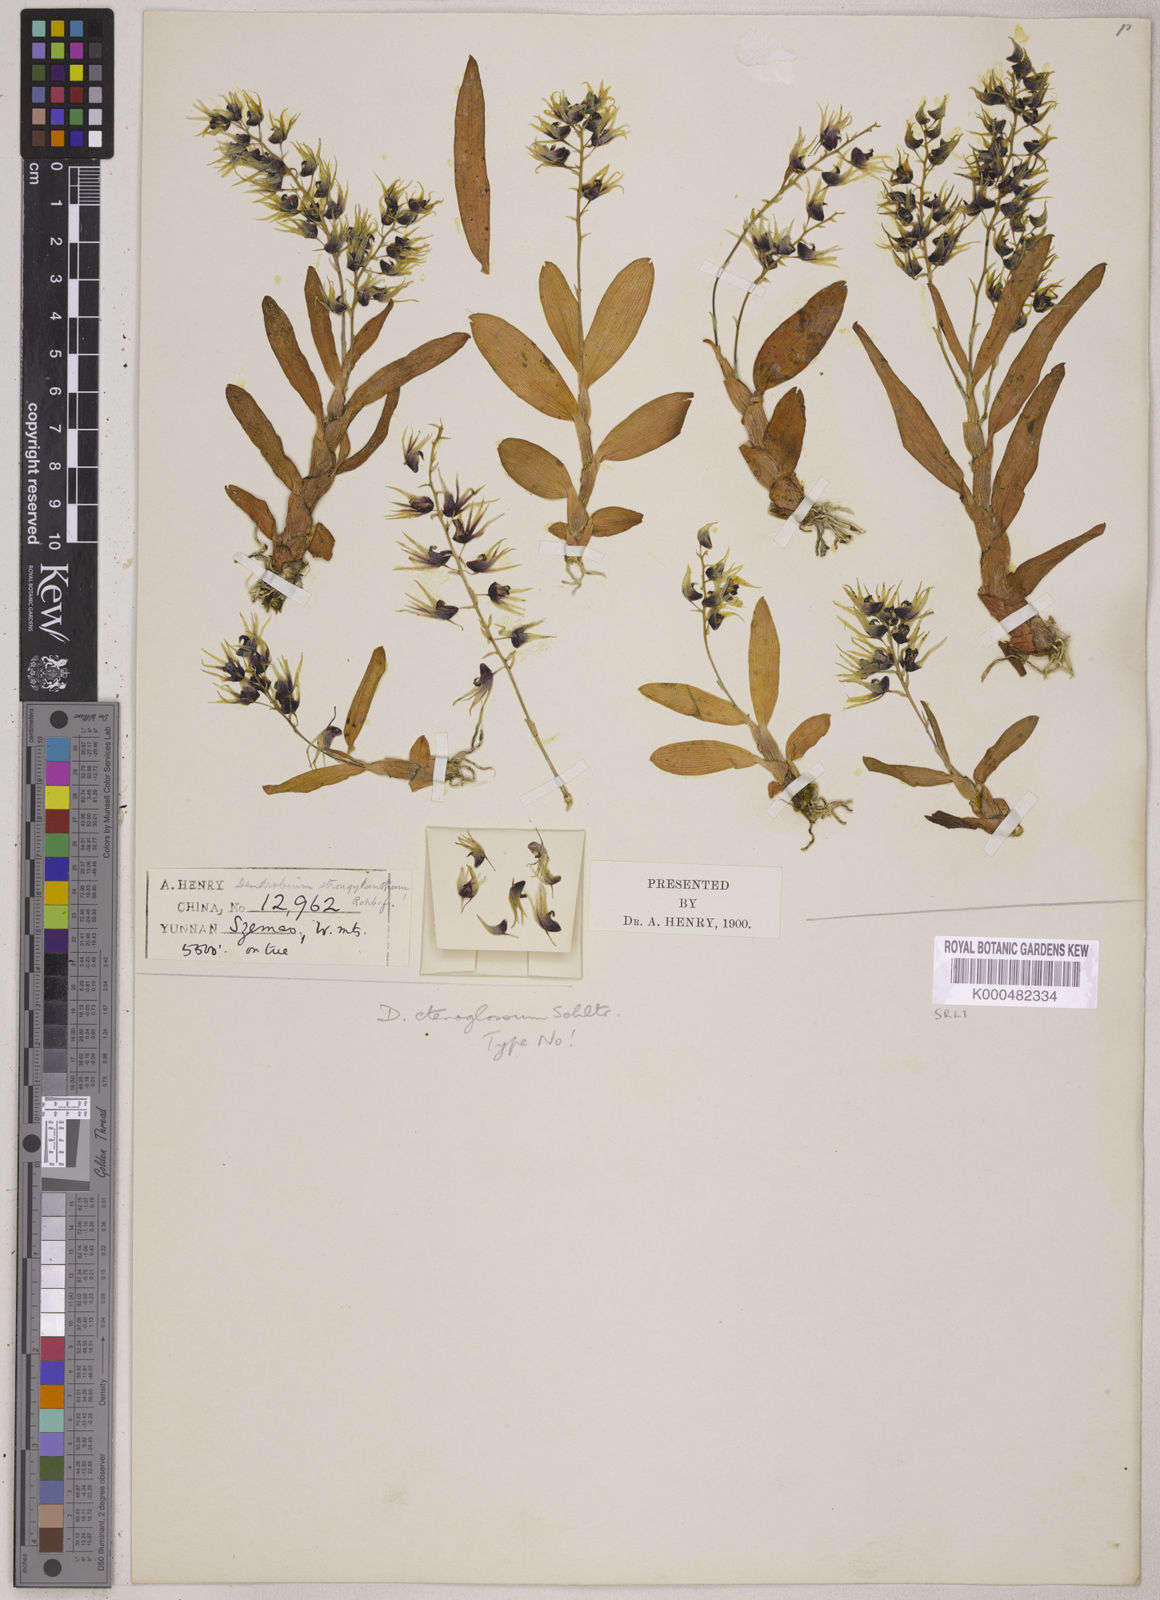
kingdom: Plantae
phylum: Tracheophyta
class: Liliopsida
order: Asparagales
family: Orchidaceae
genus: Dendrobium
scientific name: Dendrobium strongylanthum
